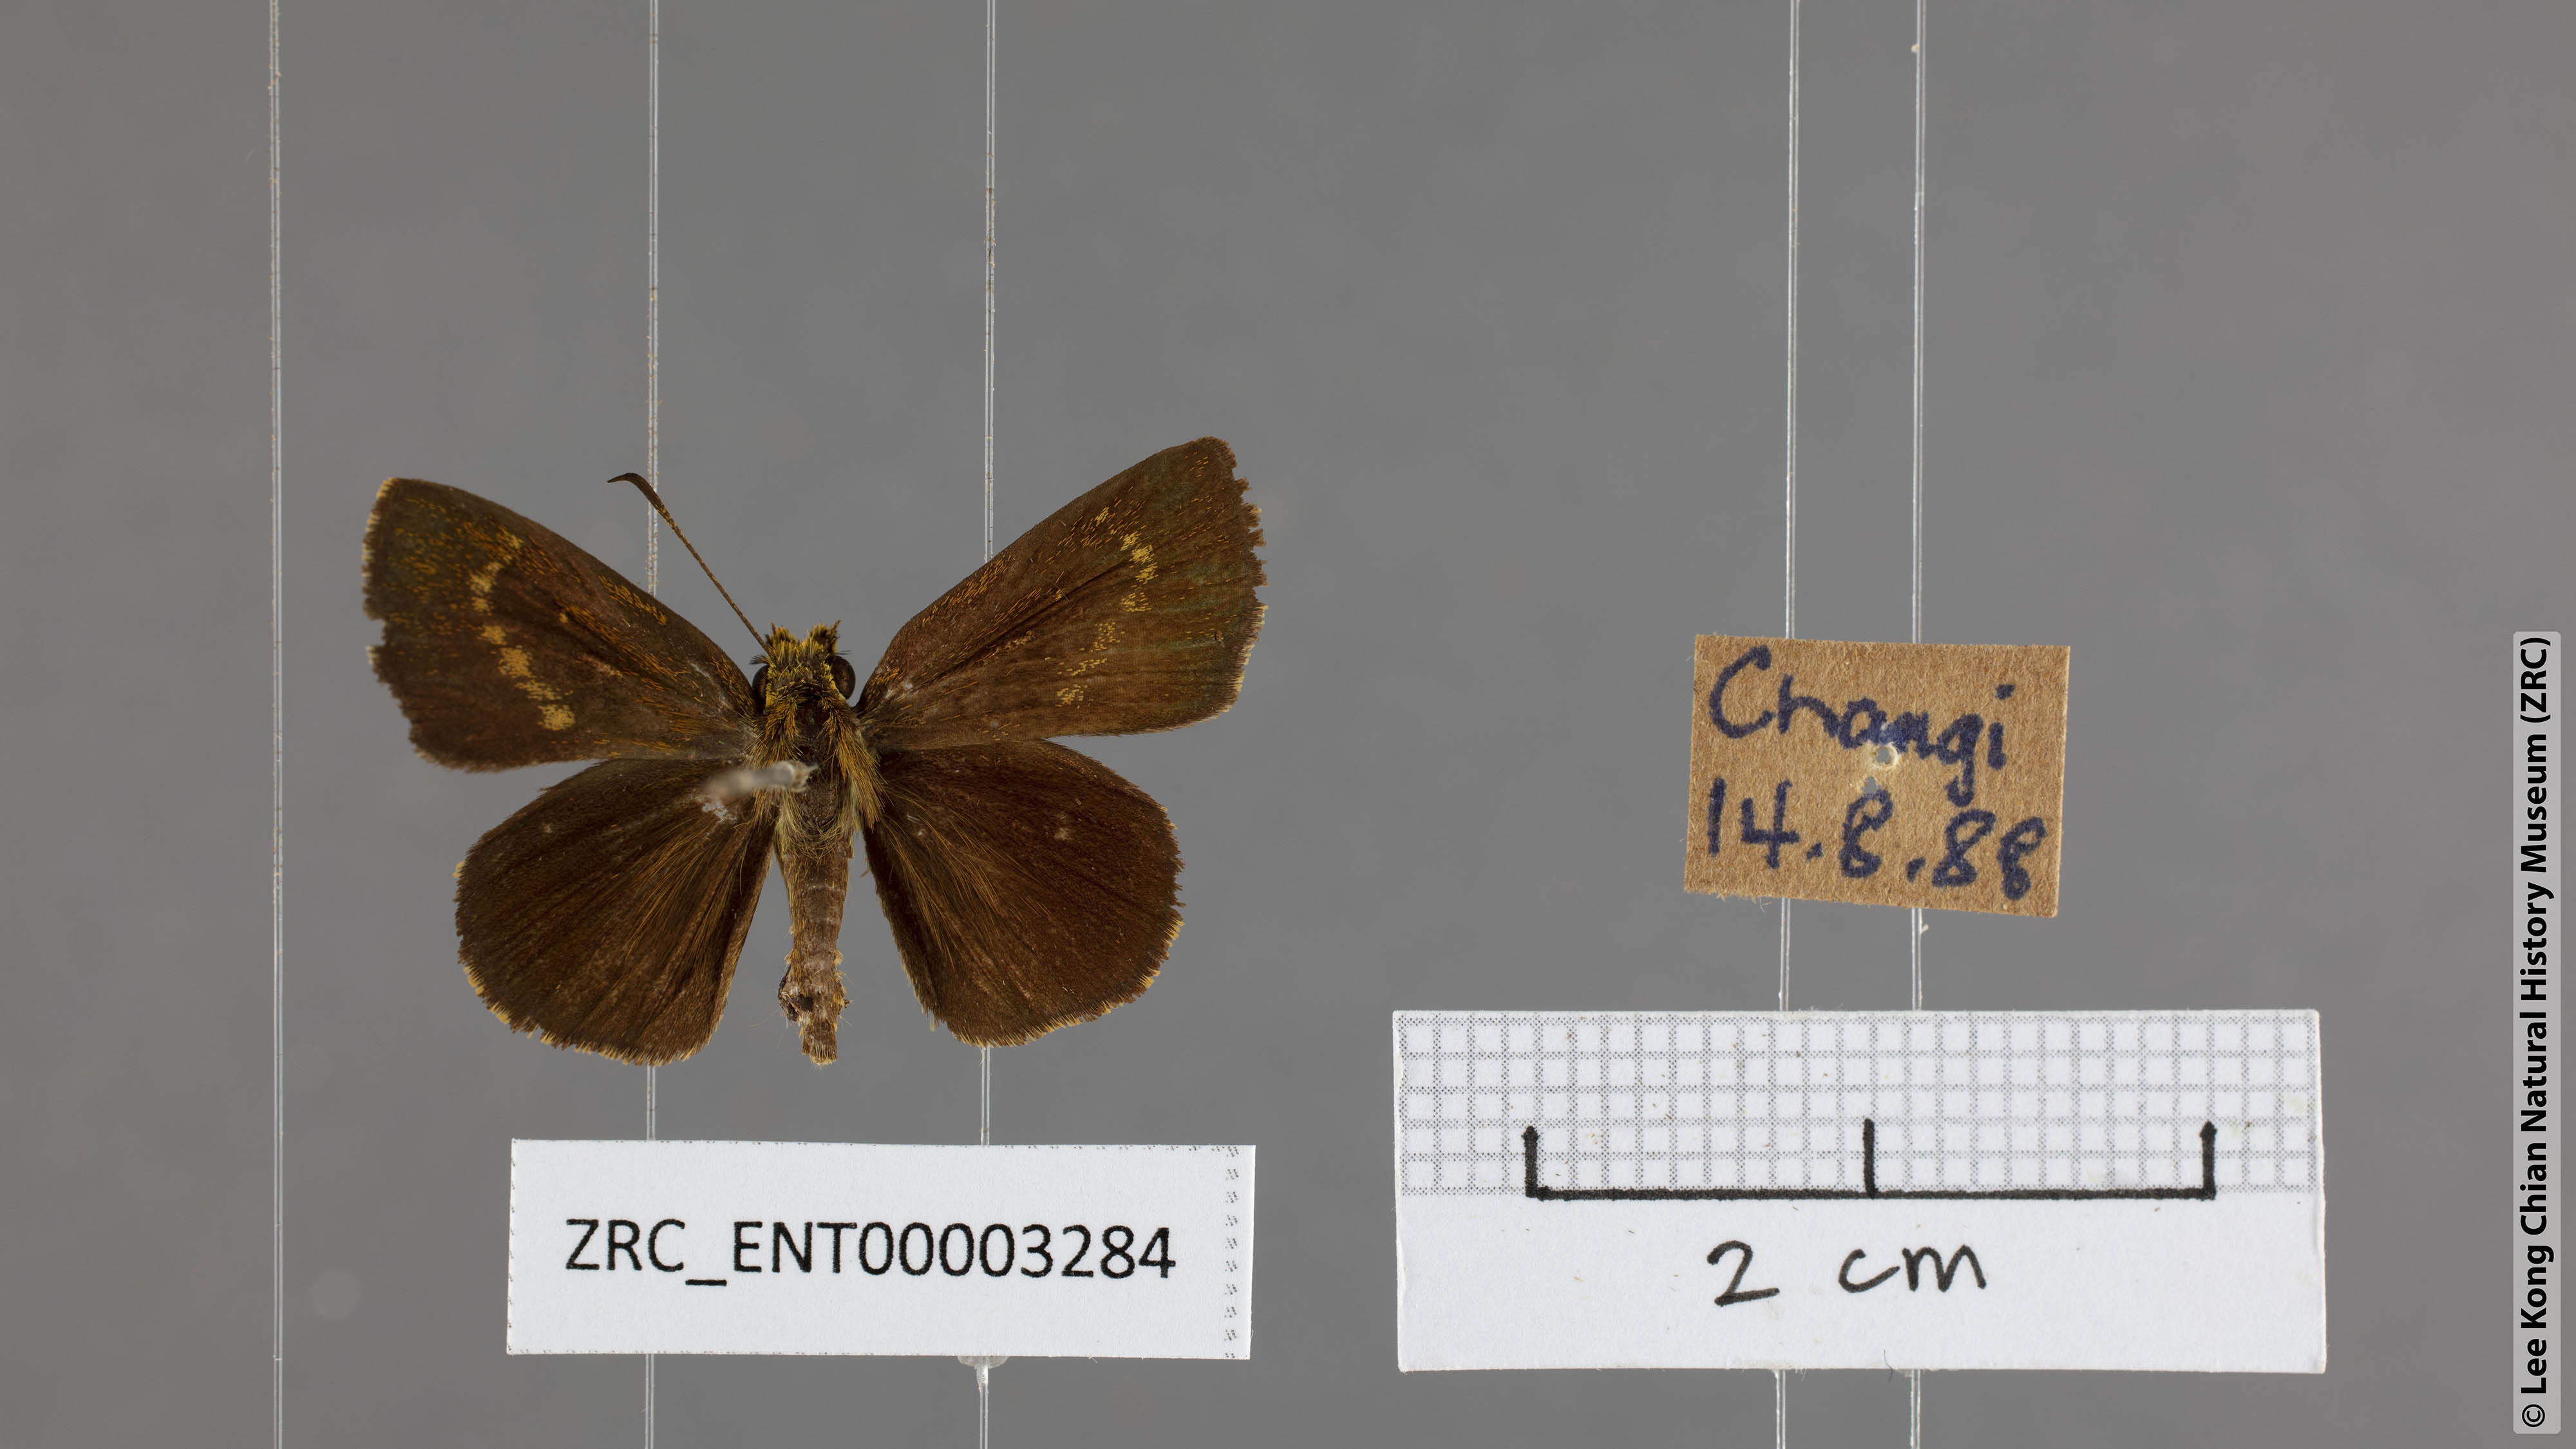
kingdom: Animalia
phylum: Arthropoda
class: Insecta
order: Lepidoptera
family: Hesperiidae
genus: Iambrix
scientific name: Iambrix salsala
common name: Chestnut bob
